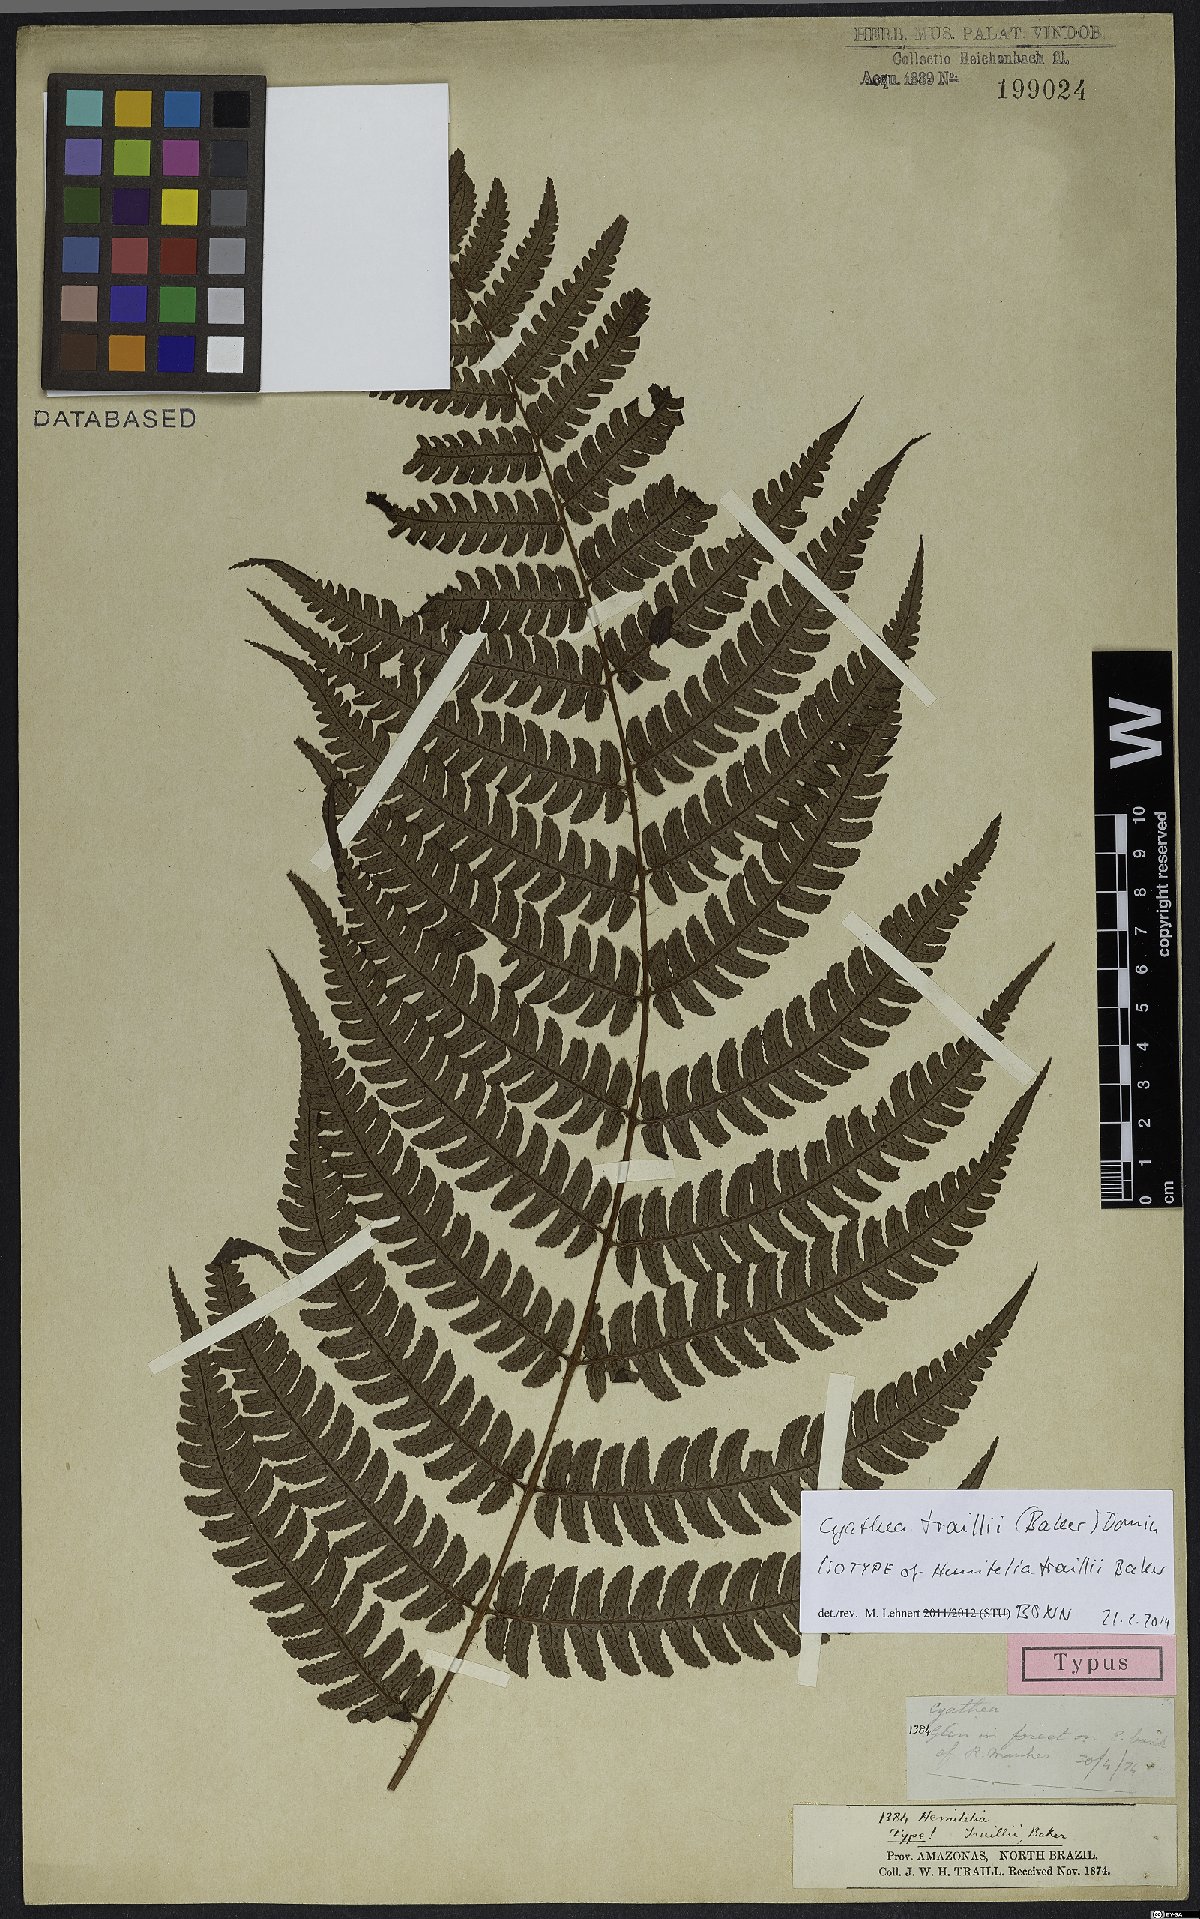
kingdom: Plantae
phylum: Tracheophyta
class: Polypodiopsida
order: Cyatheales
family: Cyatheaceae
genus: Cyathea
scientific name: Cyathea traillii
